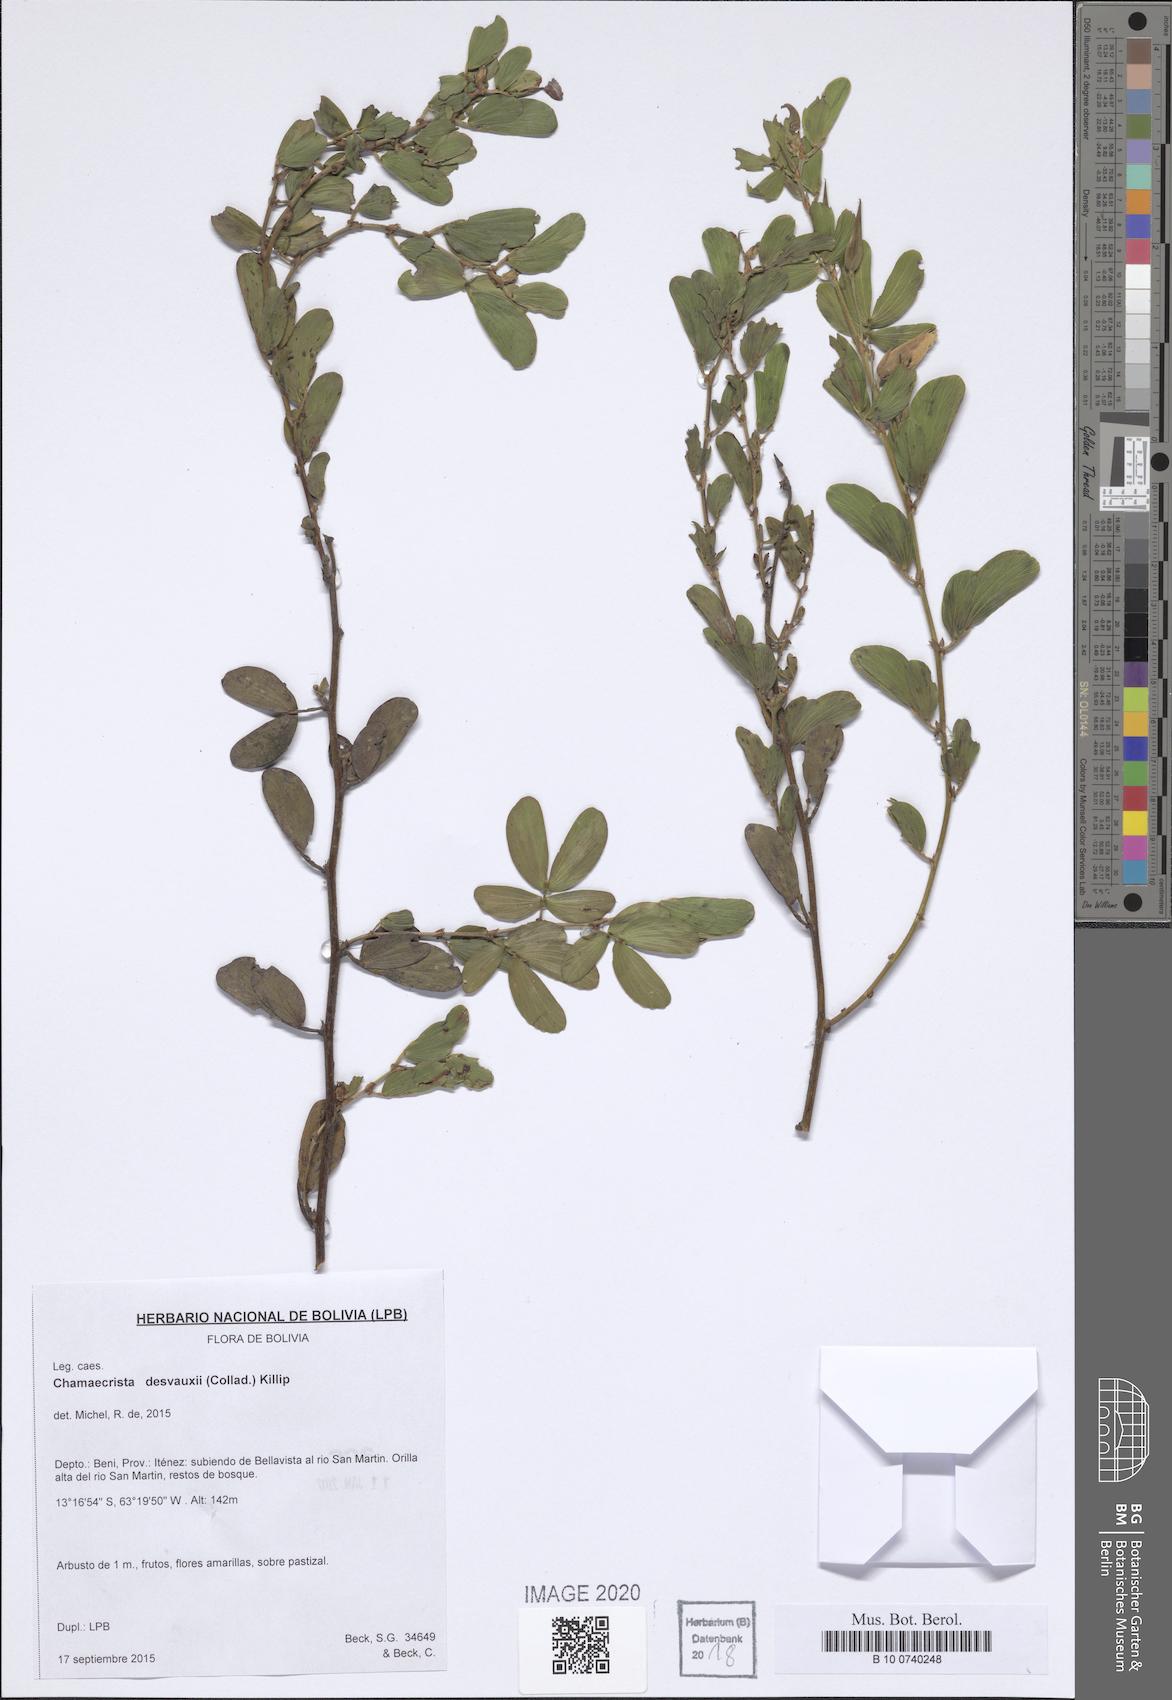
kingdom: Plantae
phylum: Tracheophyta
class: Magnoliopsida
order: Fabales
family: Fabaceae
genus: Chamaecrista
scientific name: Chamaecrista desvauxii
